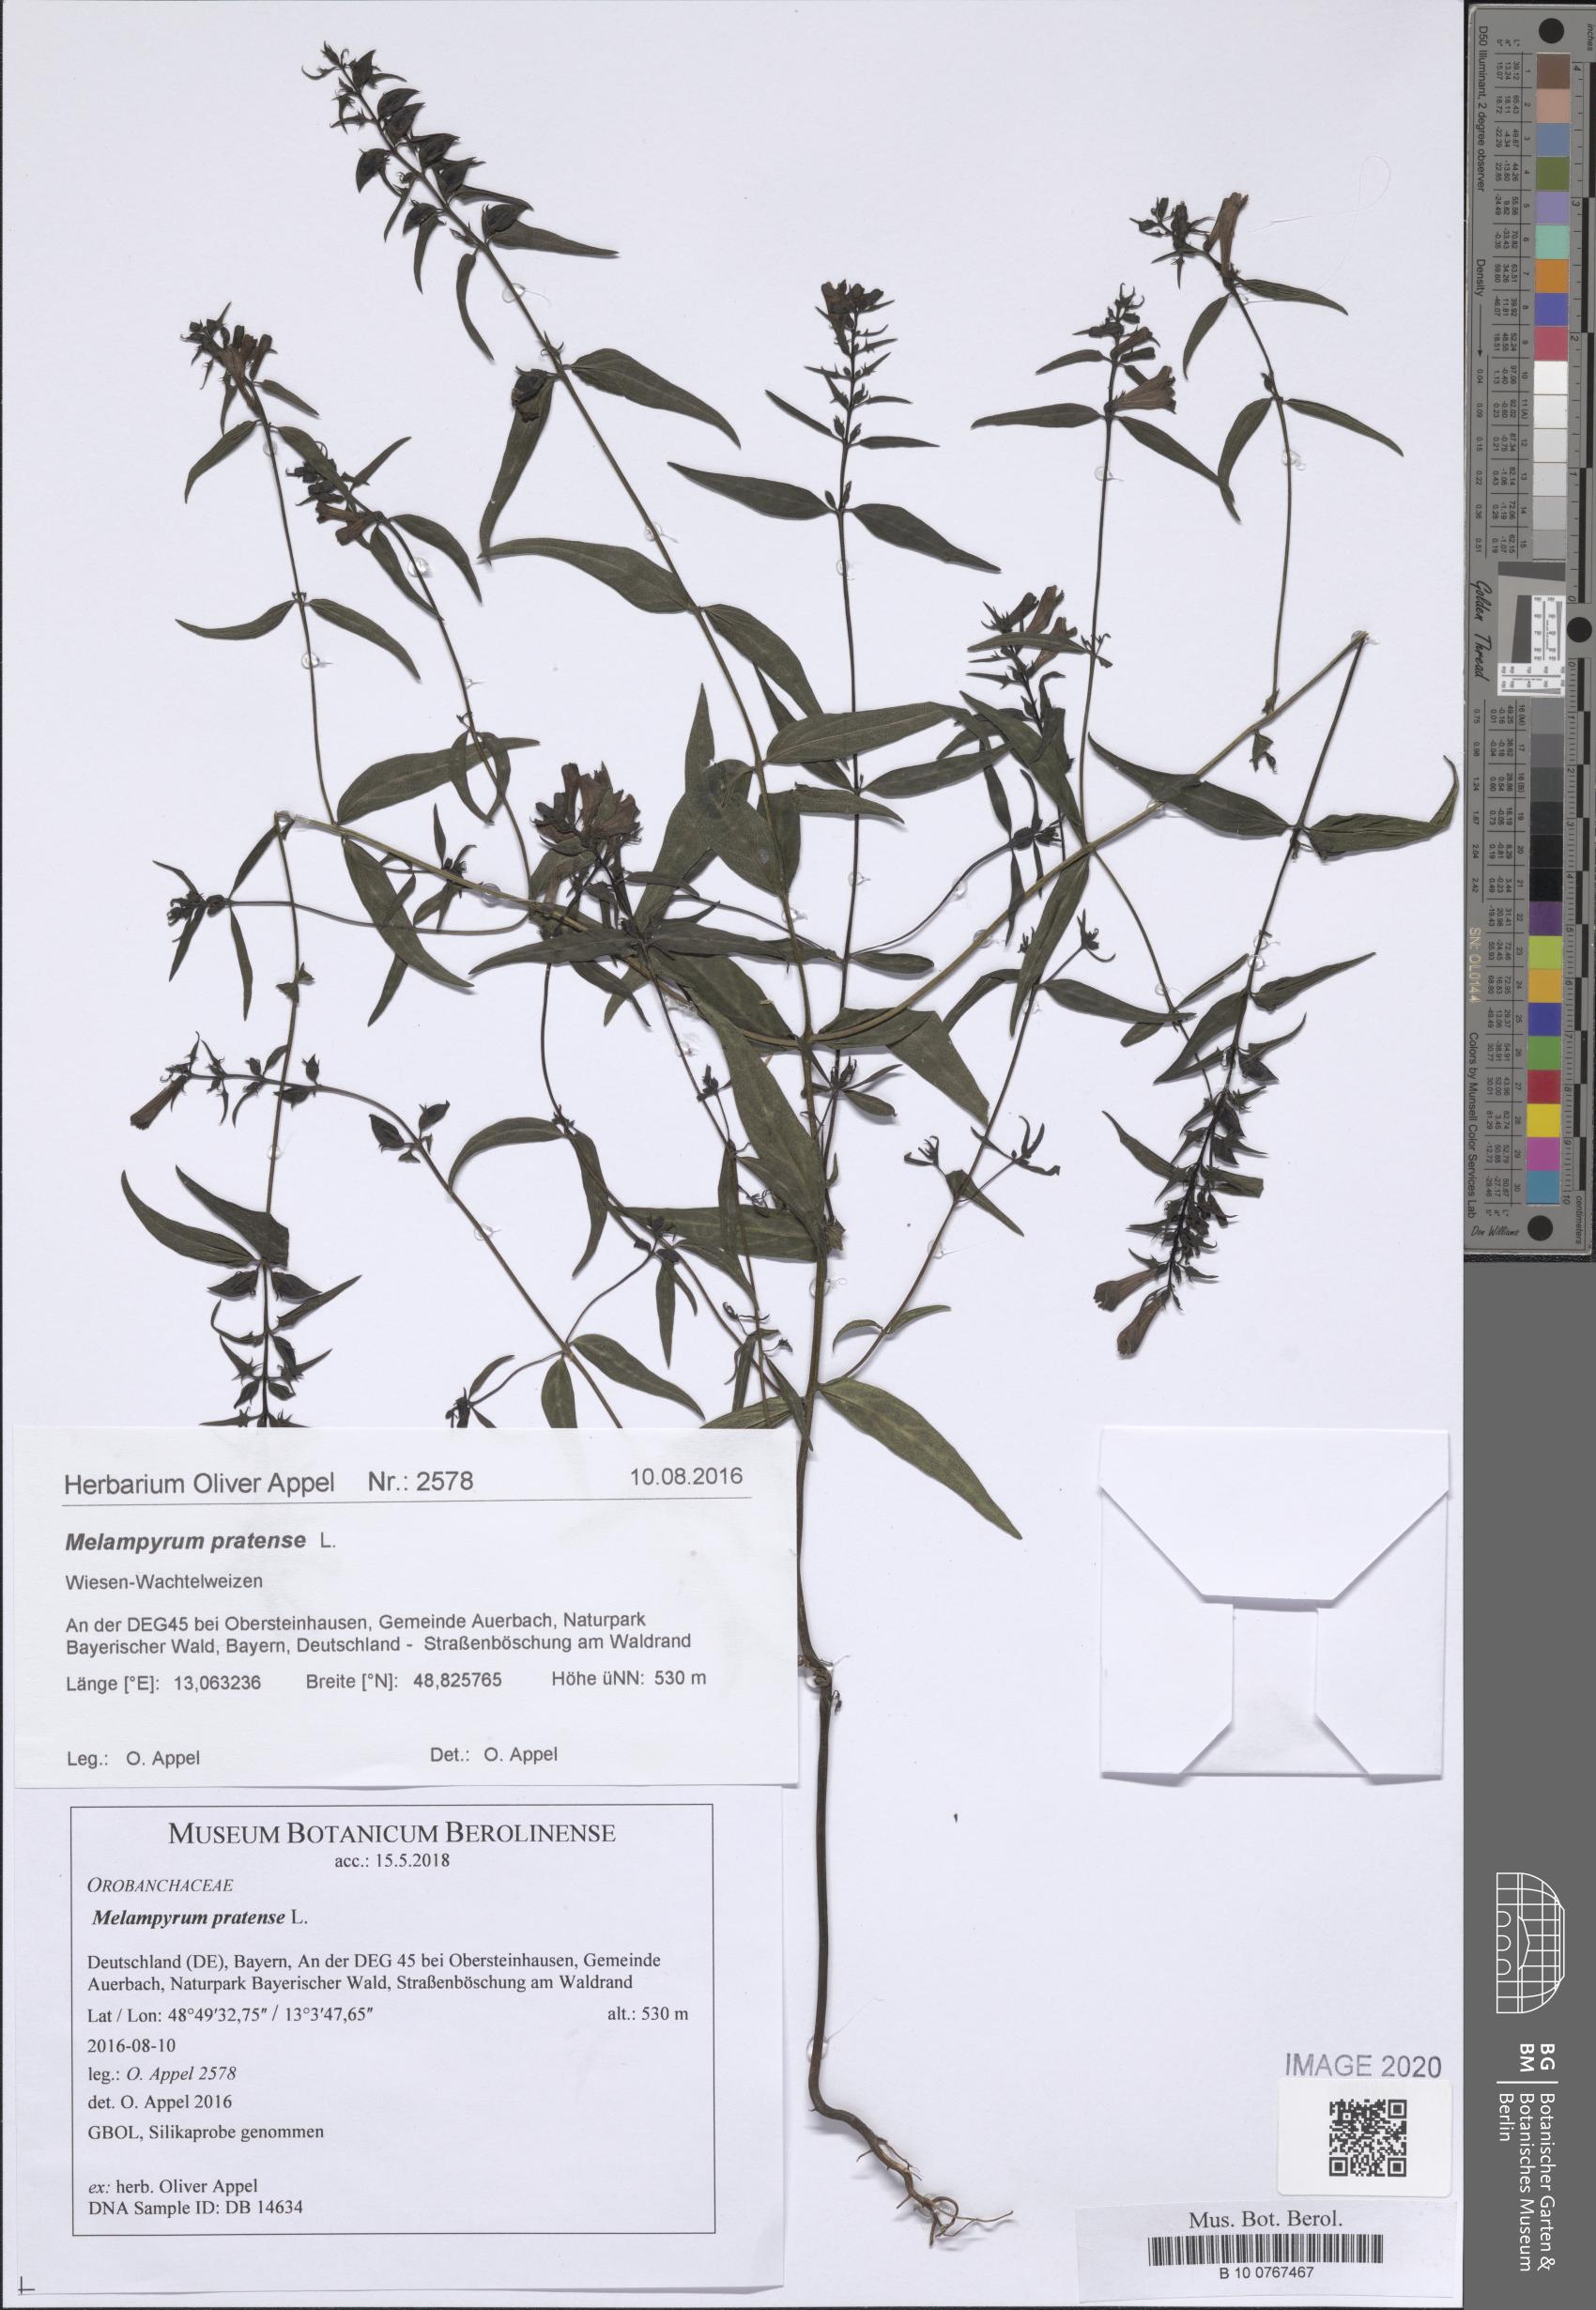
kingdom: Plantae
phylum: Tracheophyta
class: Magnoliopsida
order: Lamiales
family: Orobanchaceae
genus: Melampyrum
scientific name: Melampyrum pratense
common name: Common cow-wheat
